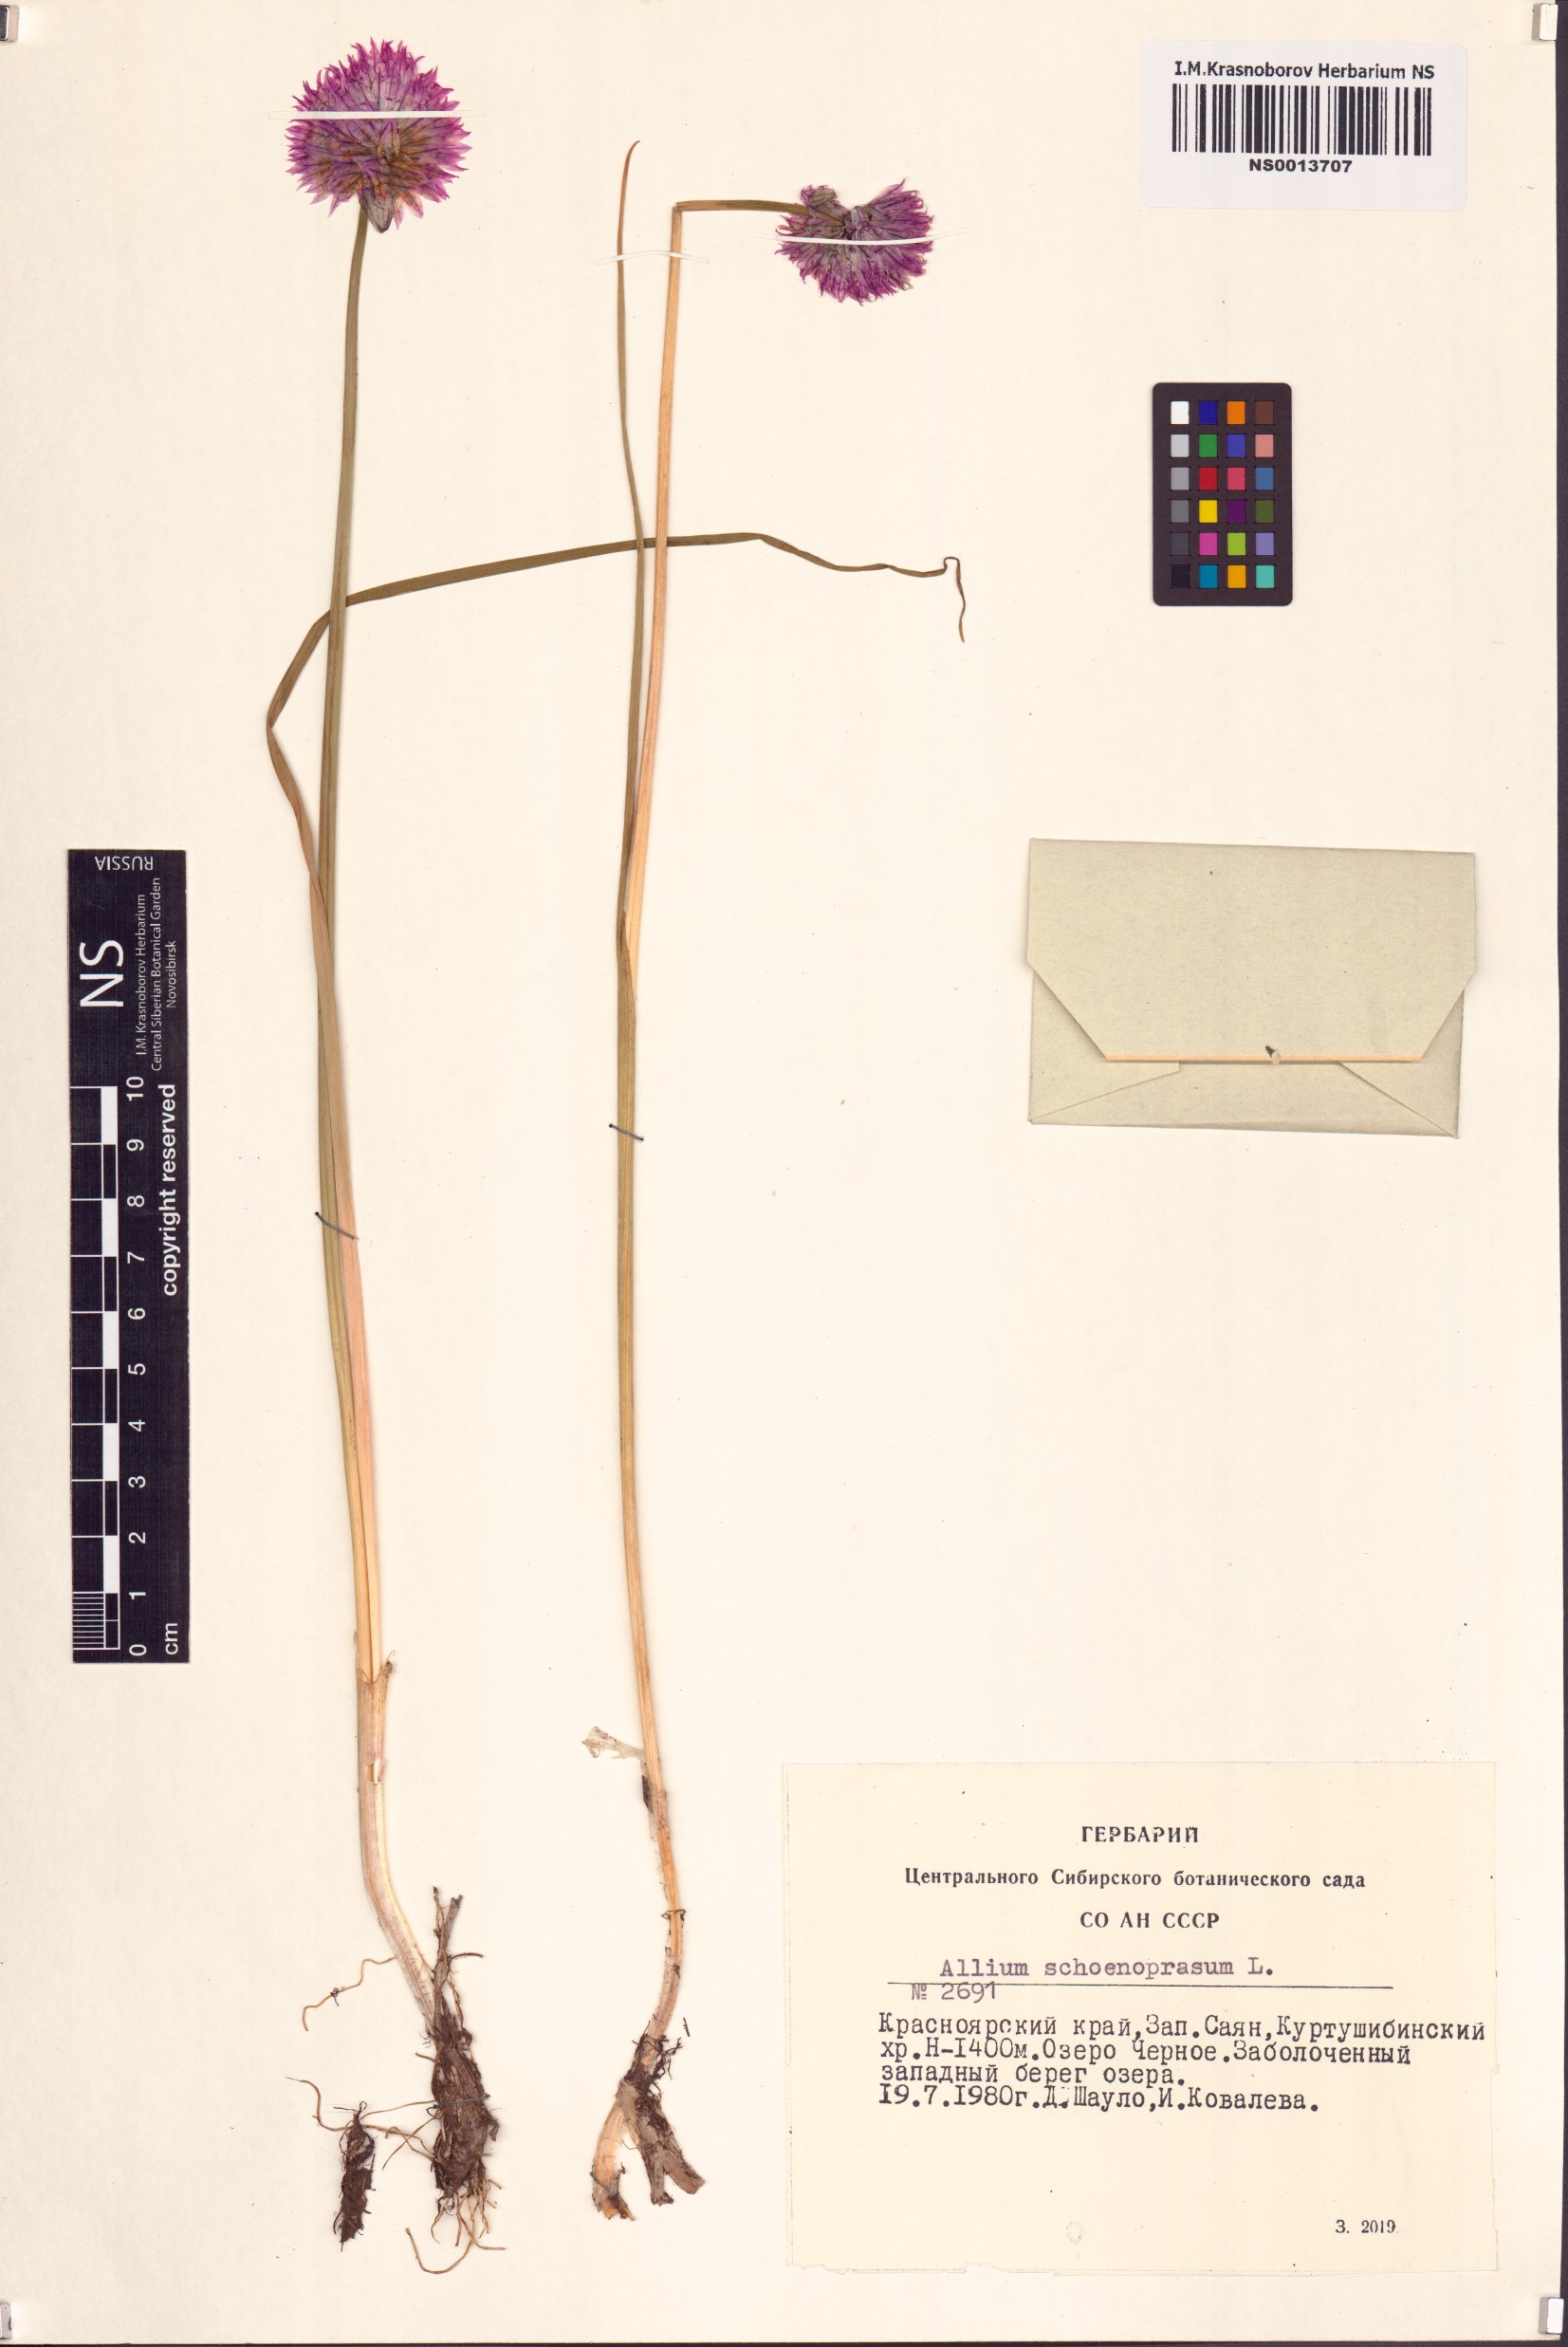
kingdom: Plantae
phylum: Tracheophyta
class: Liliopsida
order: Asparagales
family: Amaryllidaceae
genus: Allium
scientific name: Allium schoenoprasum
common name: Chives
